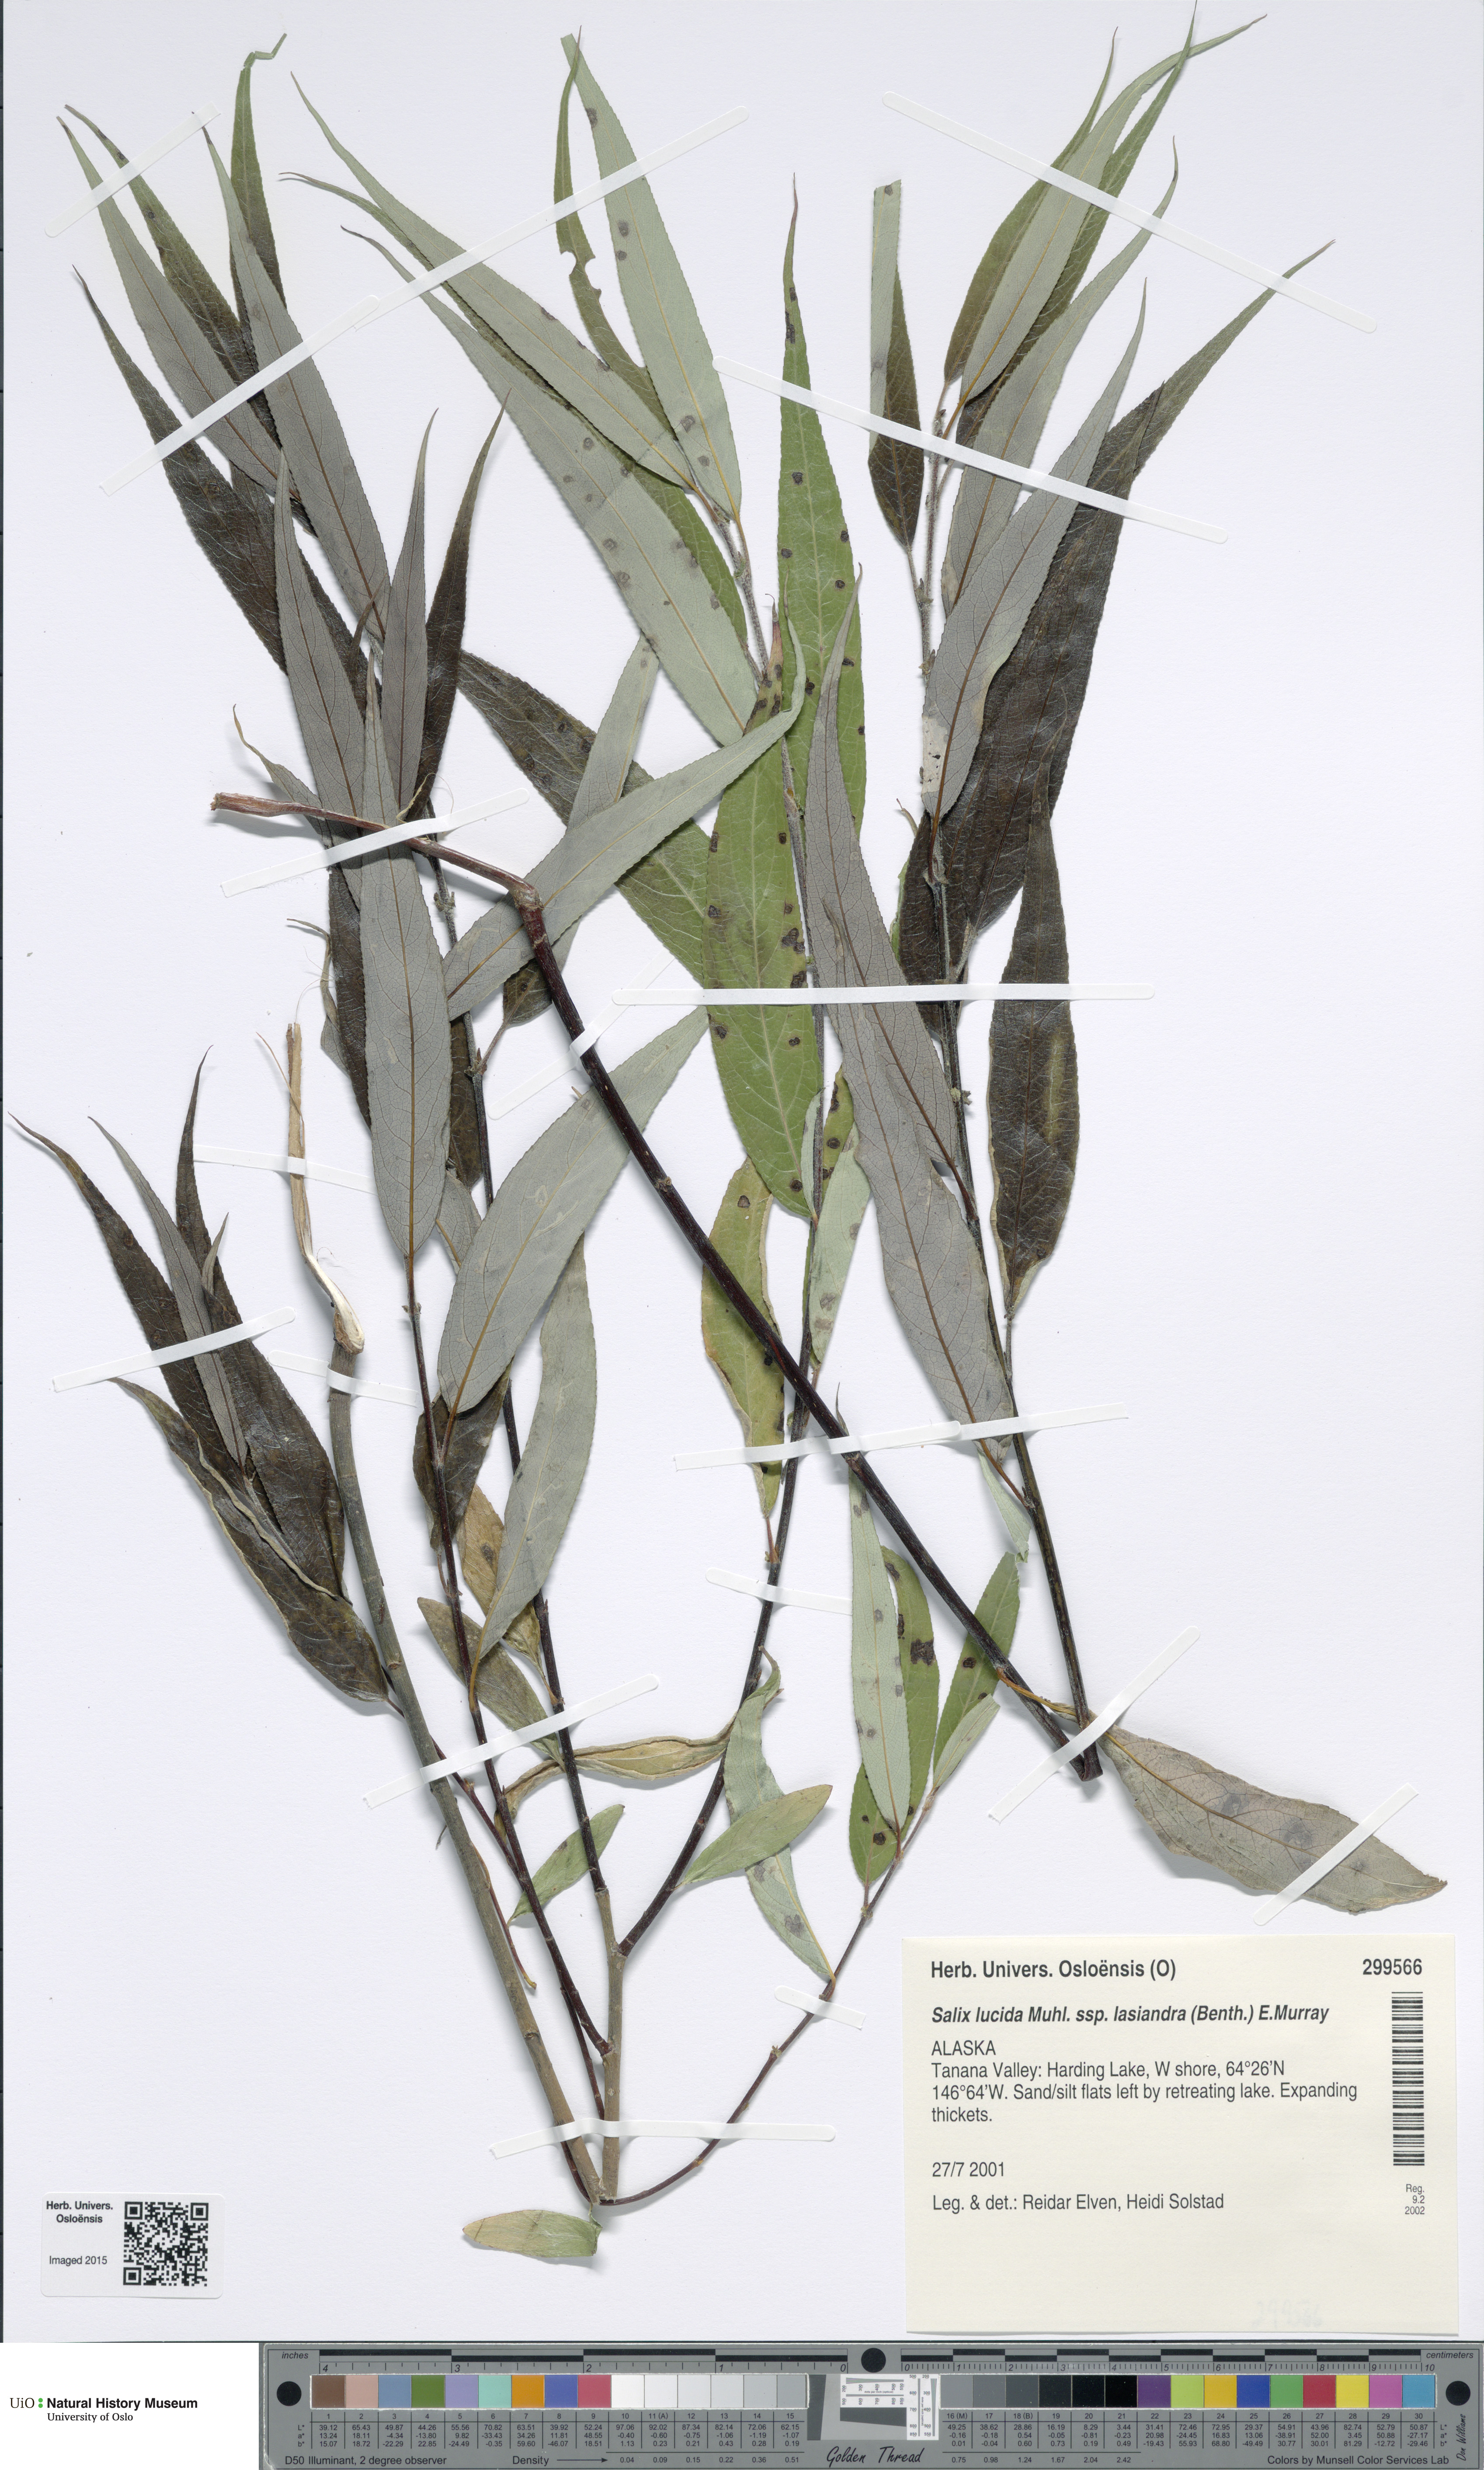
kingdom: Plantae
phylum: Tracheophyta
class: Magnoliopsida
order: Malpighiales
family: Salicaceae
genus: Salix
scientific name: Salix lucida
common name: Shining willow
